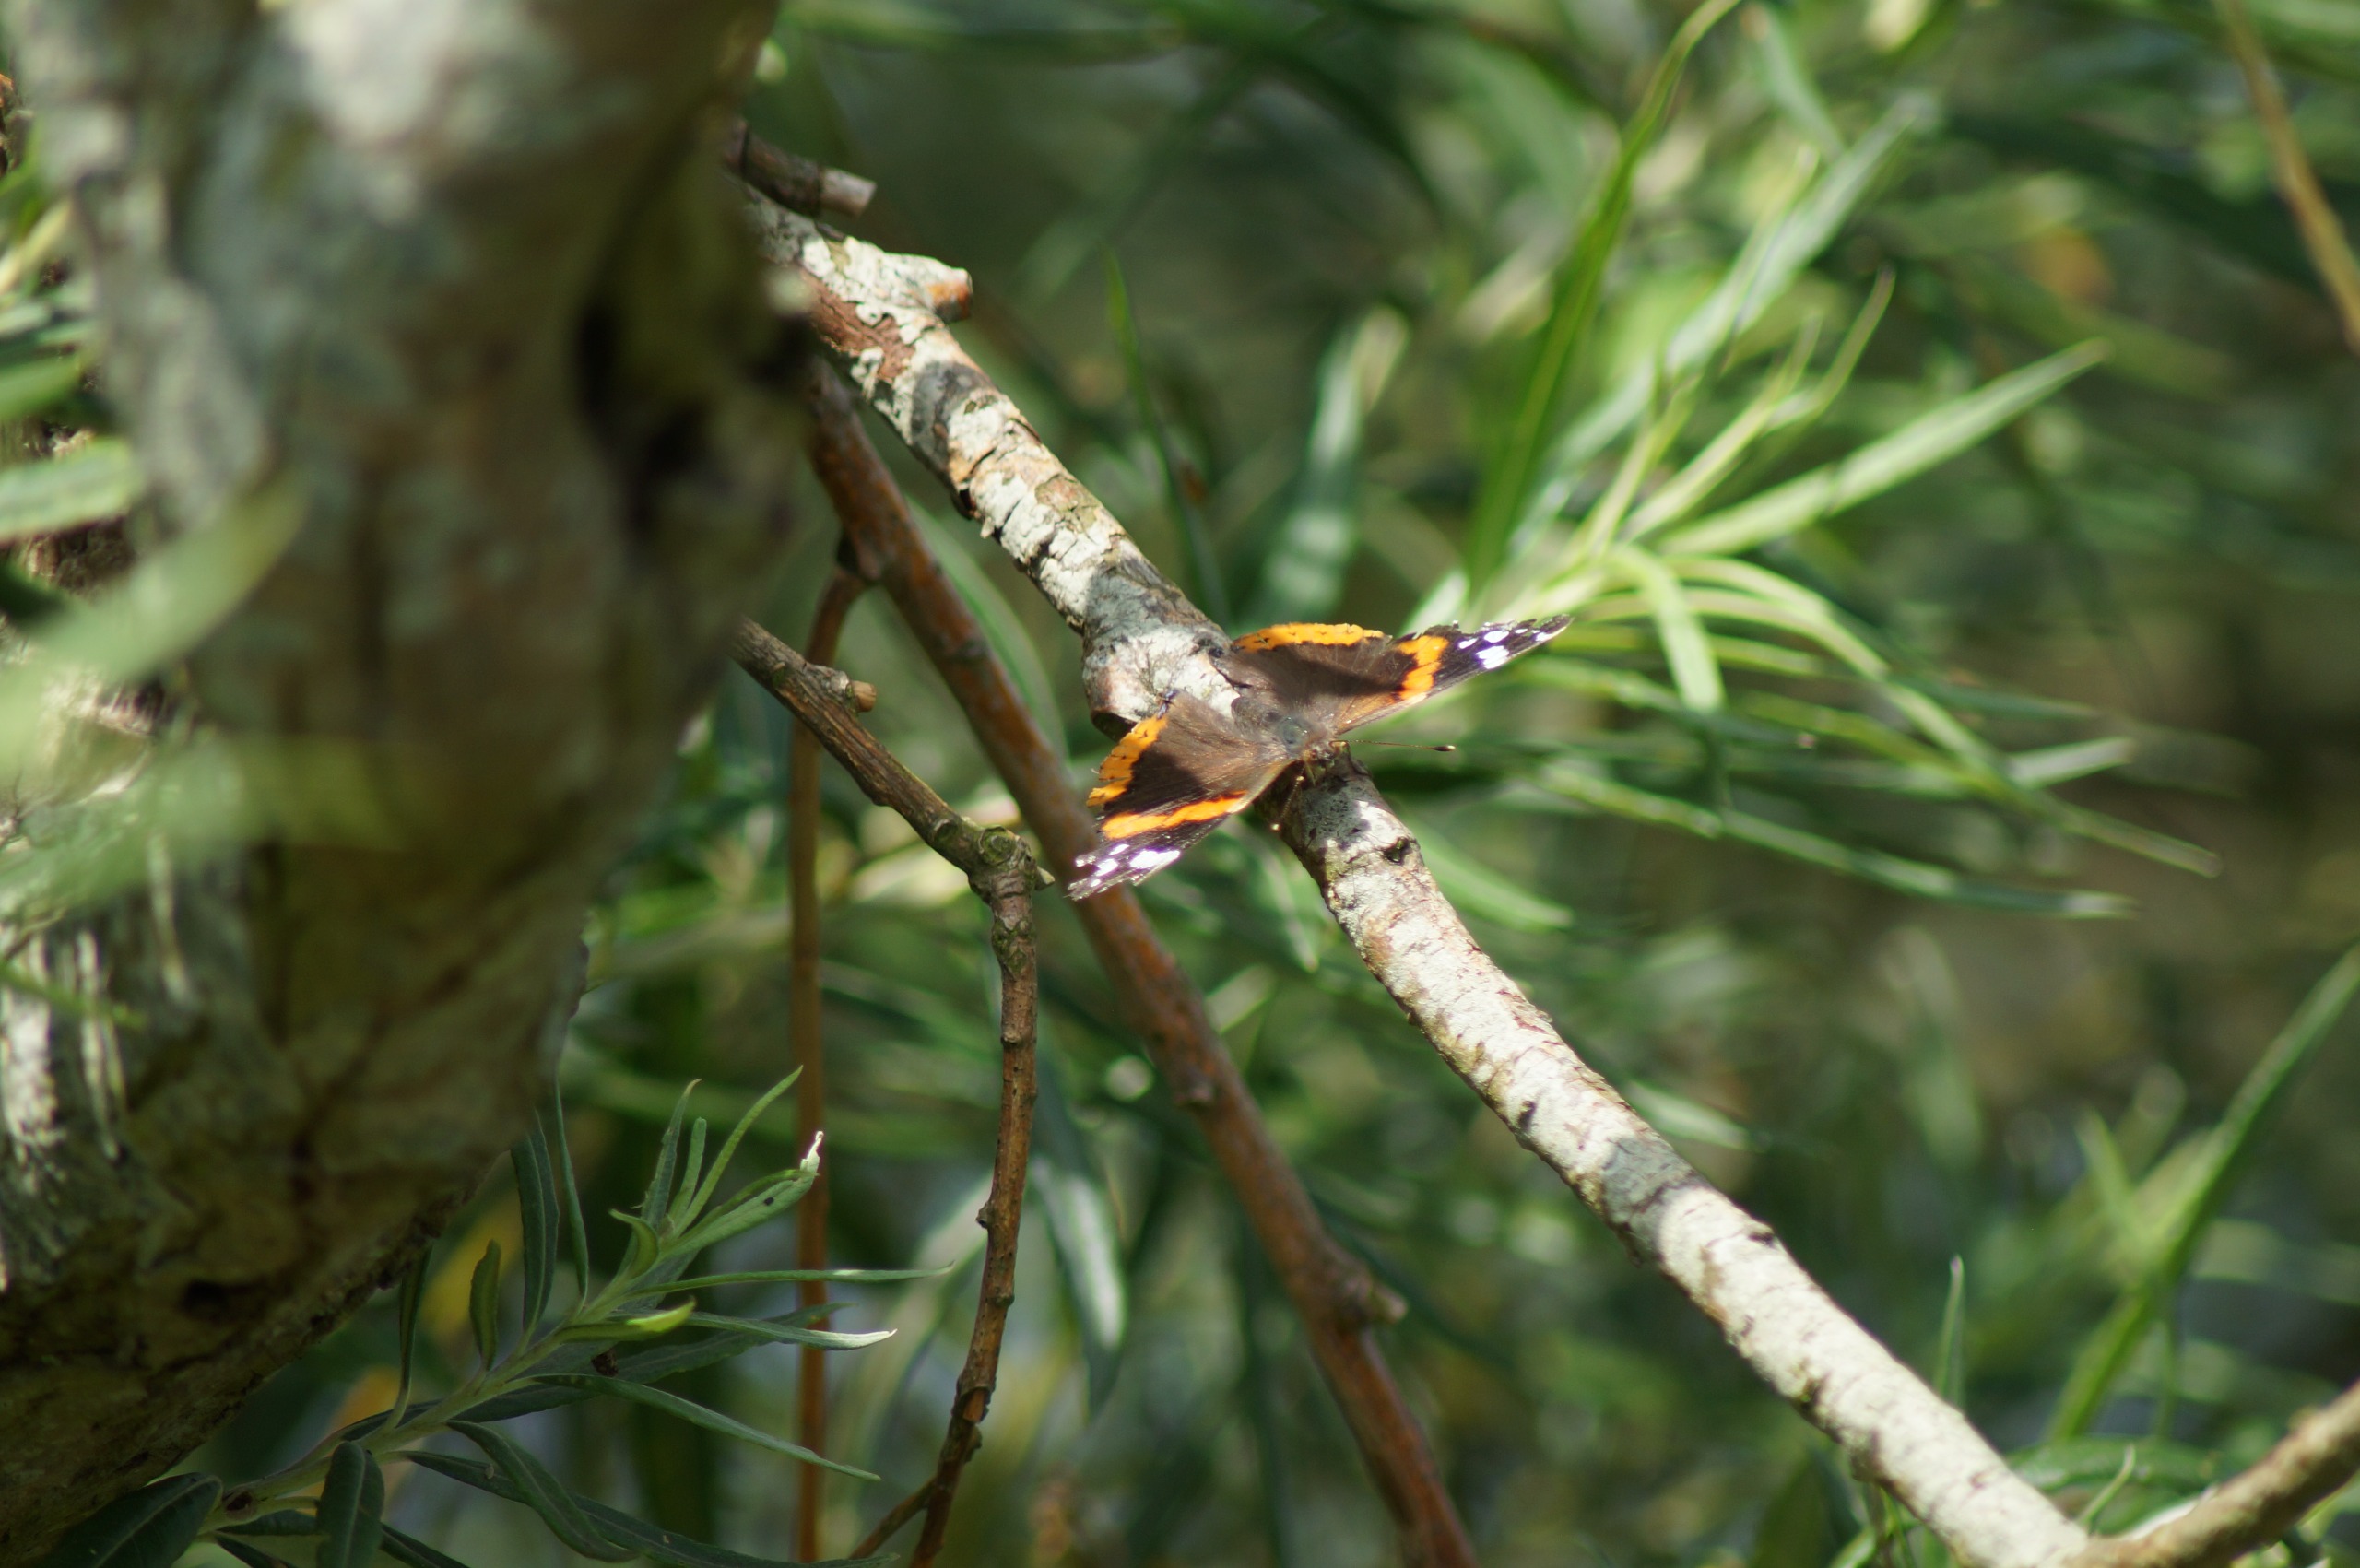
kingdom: Animalia
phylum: Arthropoda
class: Insecta
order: Lepidoptera
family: Nymphalidae
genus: Vanessa
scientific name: Vanessa atalanta
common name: Admiral
